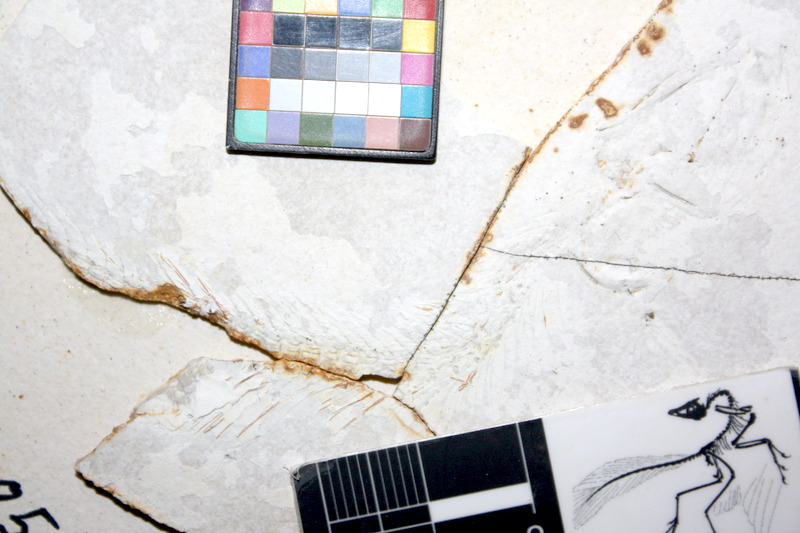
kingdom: Animalia
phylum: Chordata
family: Allothrissopidae
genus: Allothrissops
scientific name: Allothrissops mesogaster
